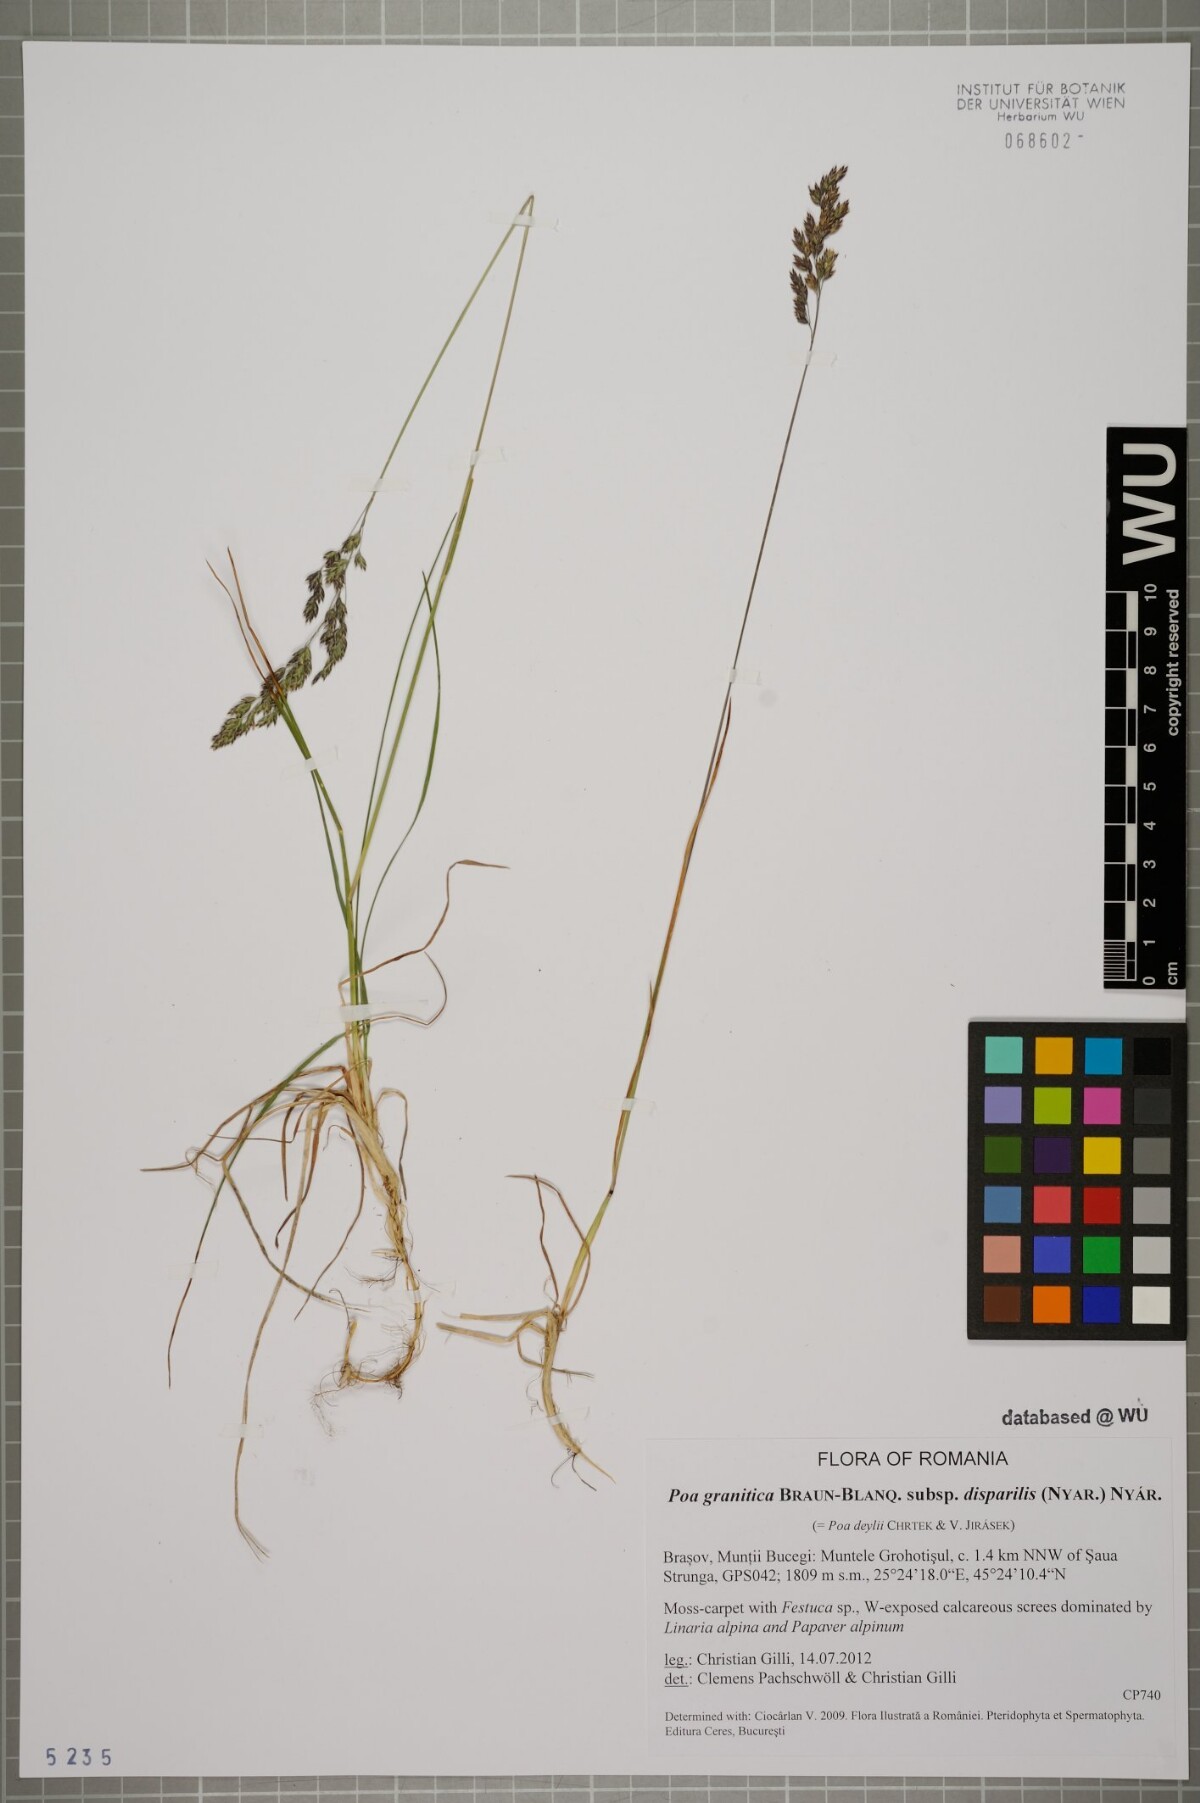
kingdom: Plantae
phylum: Tracheophyta
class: Liliopsida
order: Poales
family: Poaceae
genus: Poa
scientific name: Poa granitica
